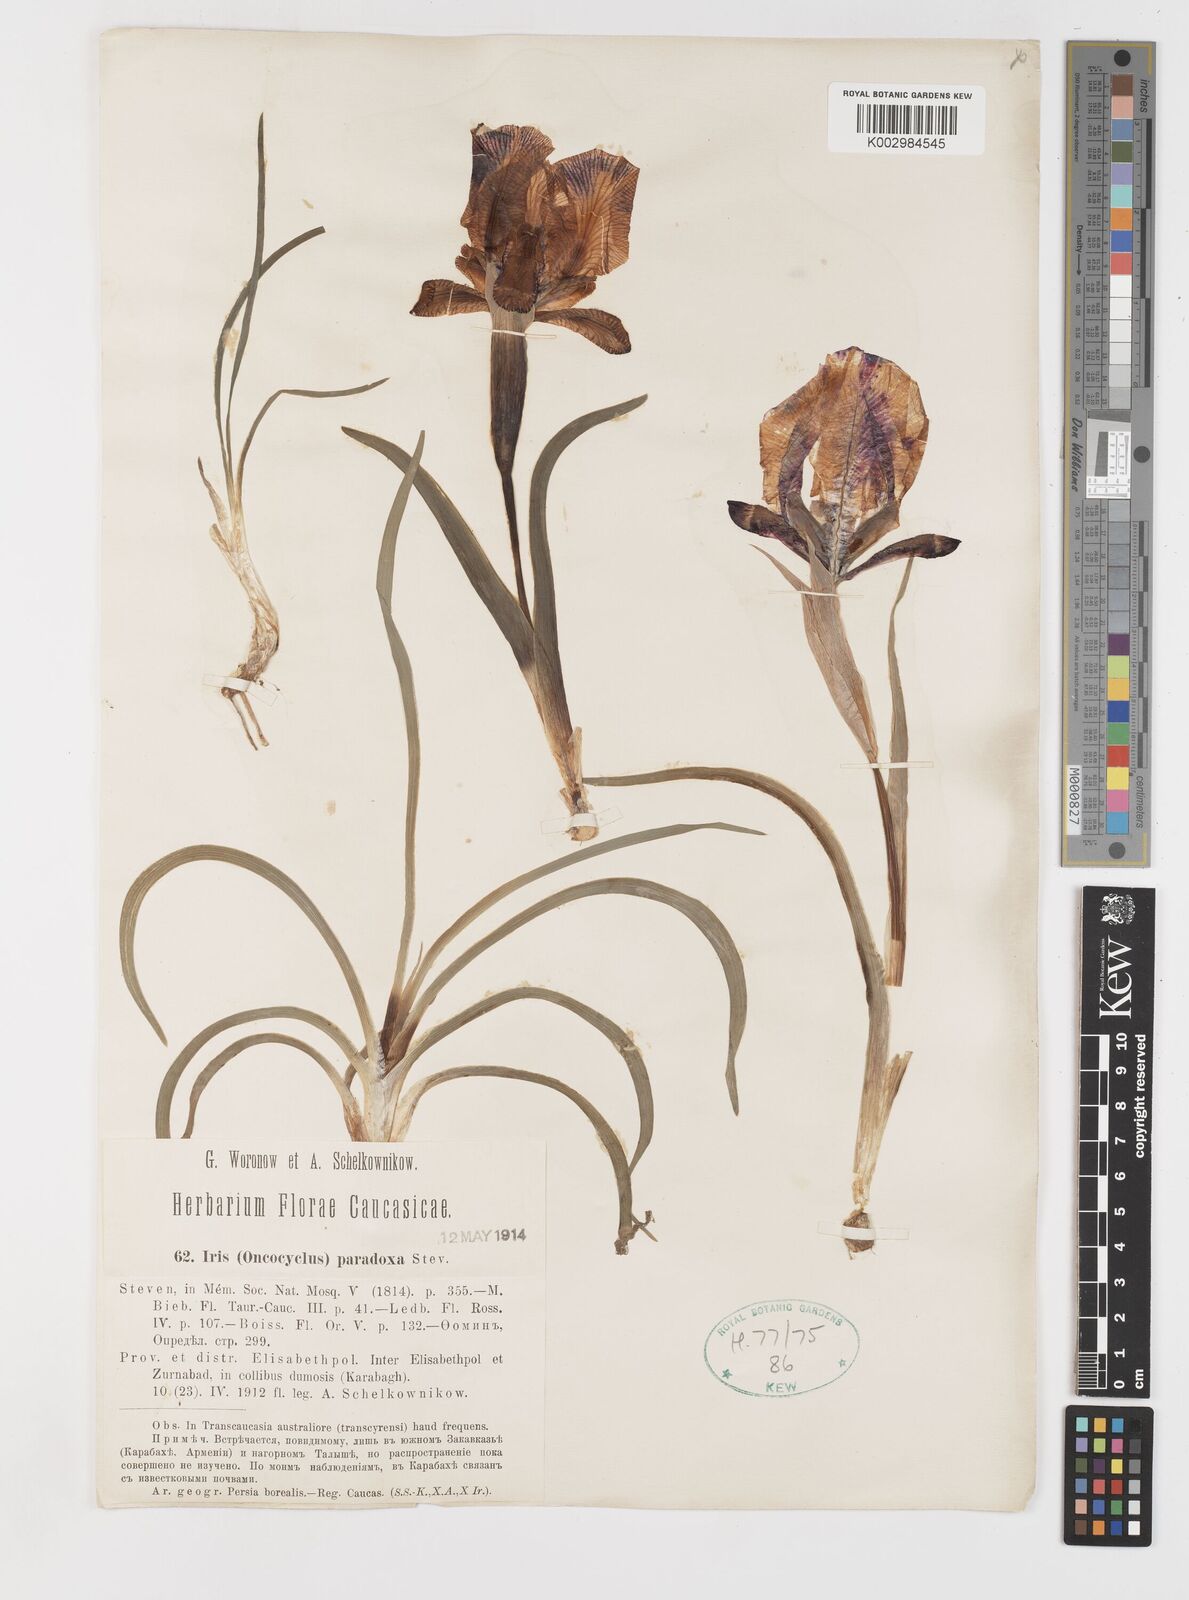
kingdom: Plantae
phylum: Tracheophyta
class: Liliopsida
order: Asparagales
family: Iridaceae
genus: Iris
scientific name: Iris paradoxa
